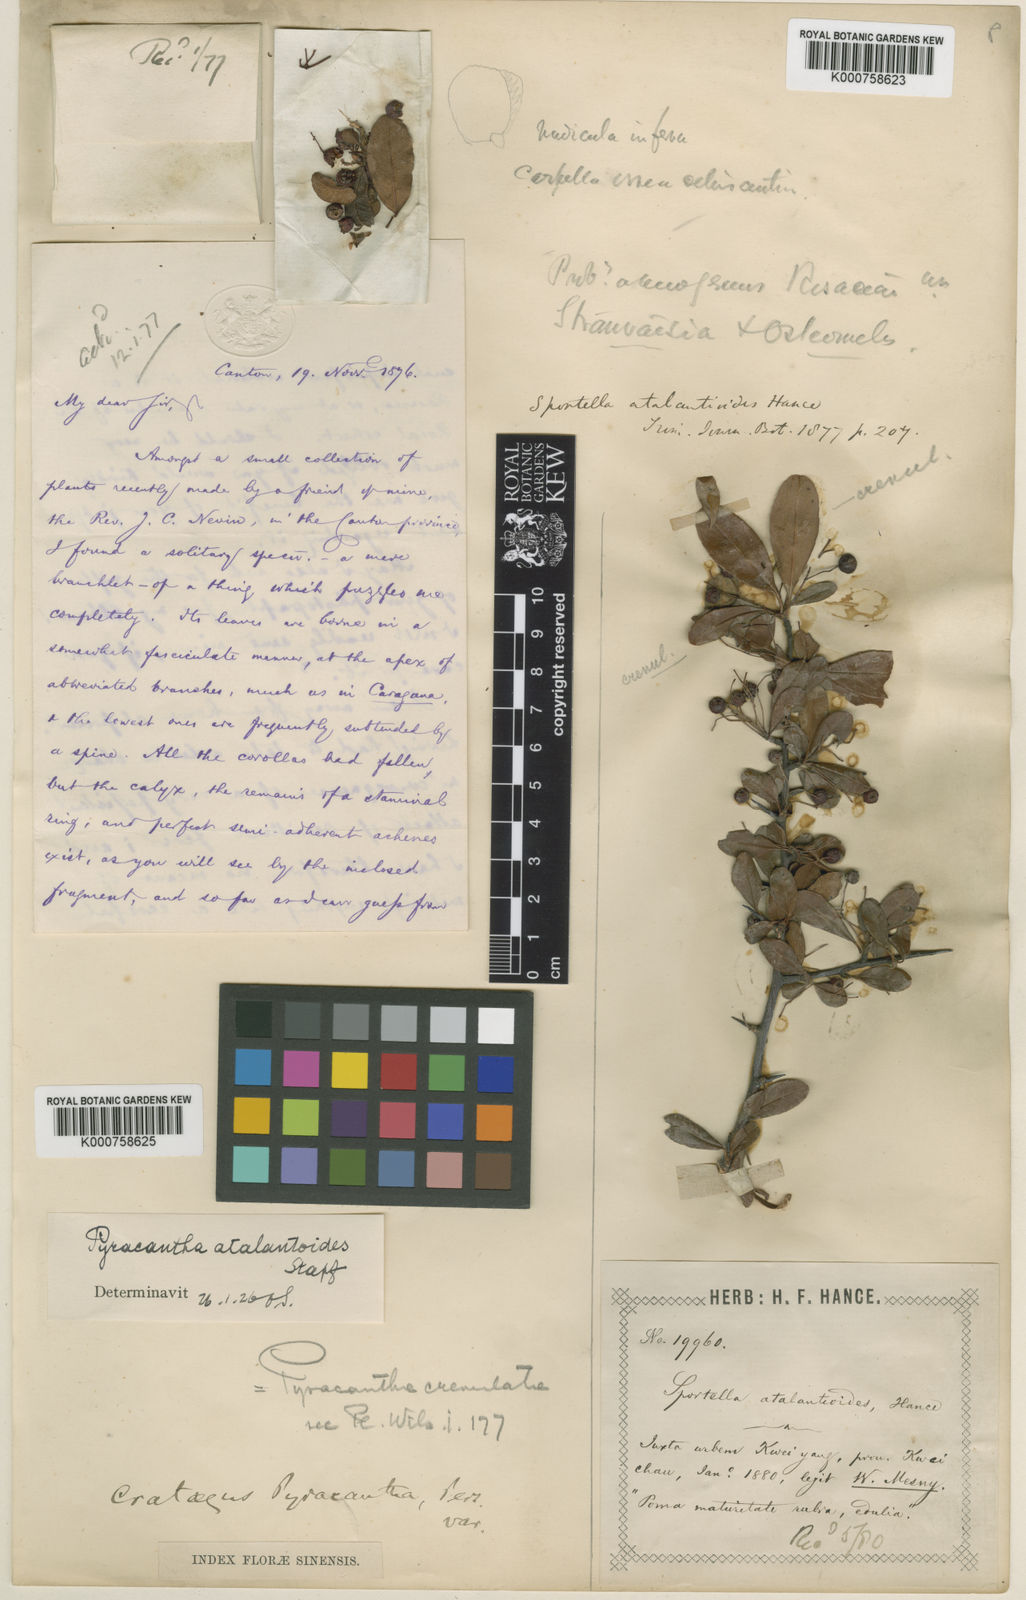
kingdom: Plantae
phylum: Tracheophyta
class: Magnoliopsida
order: Rosales
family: Rosaceae
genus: Pyracantha
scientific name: Pyracantha atalantioides
